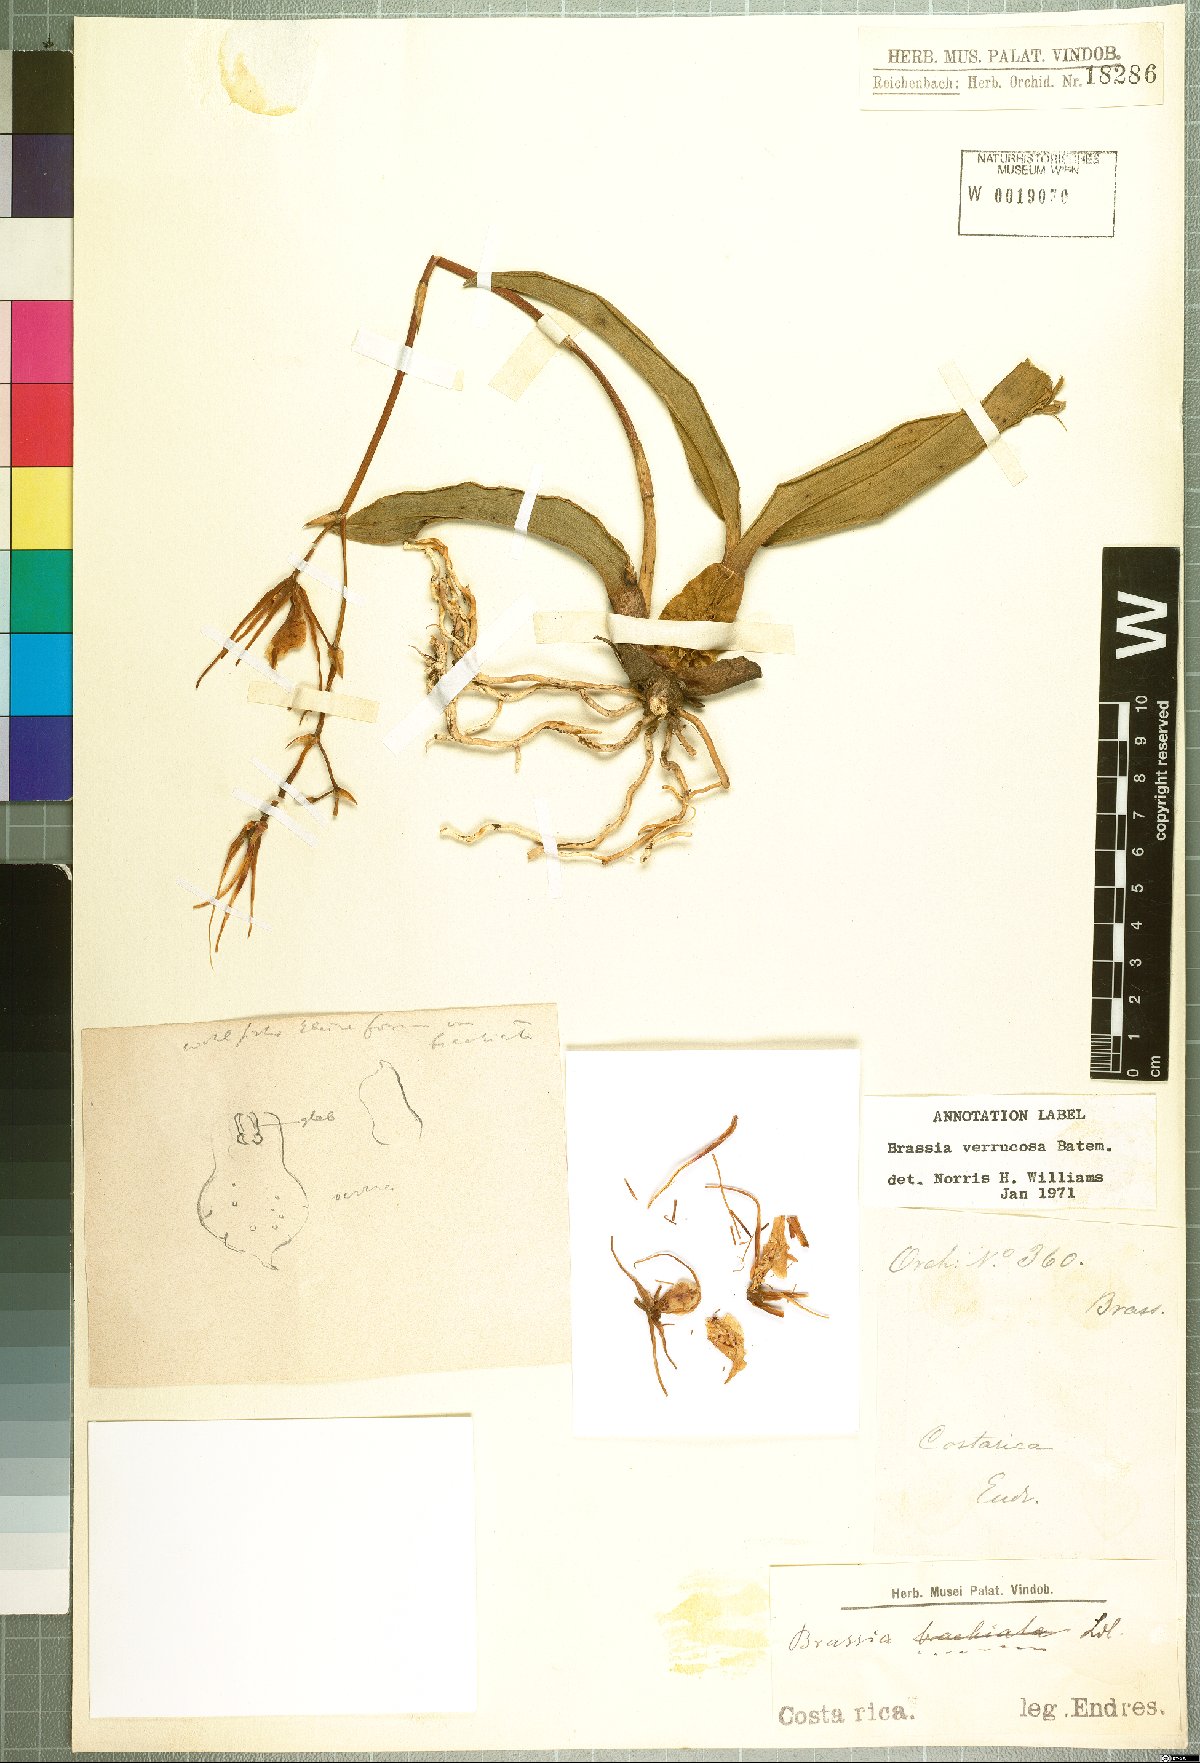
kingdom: Plantae
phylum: Tracheophyta
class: Liliopsida
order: Asparagales
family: Orchidaceae
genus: Brassia
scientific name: Brassia verrucosa
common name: Warty brassia
